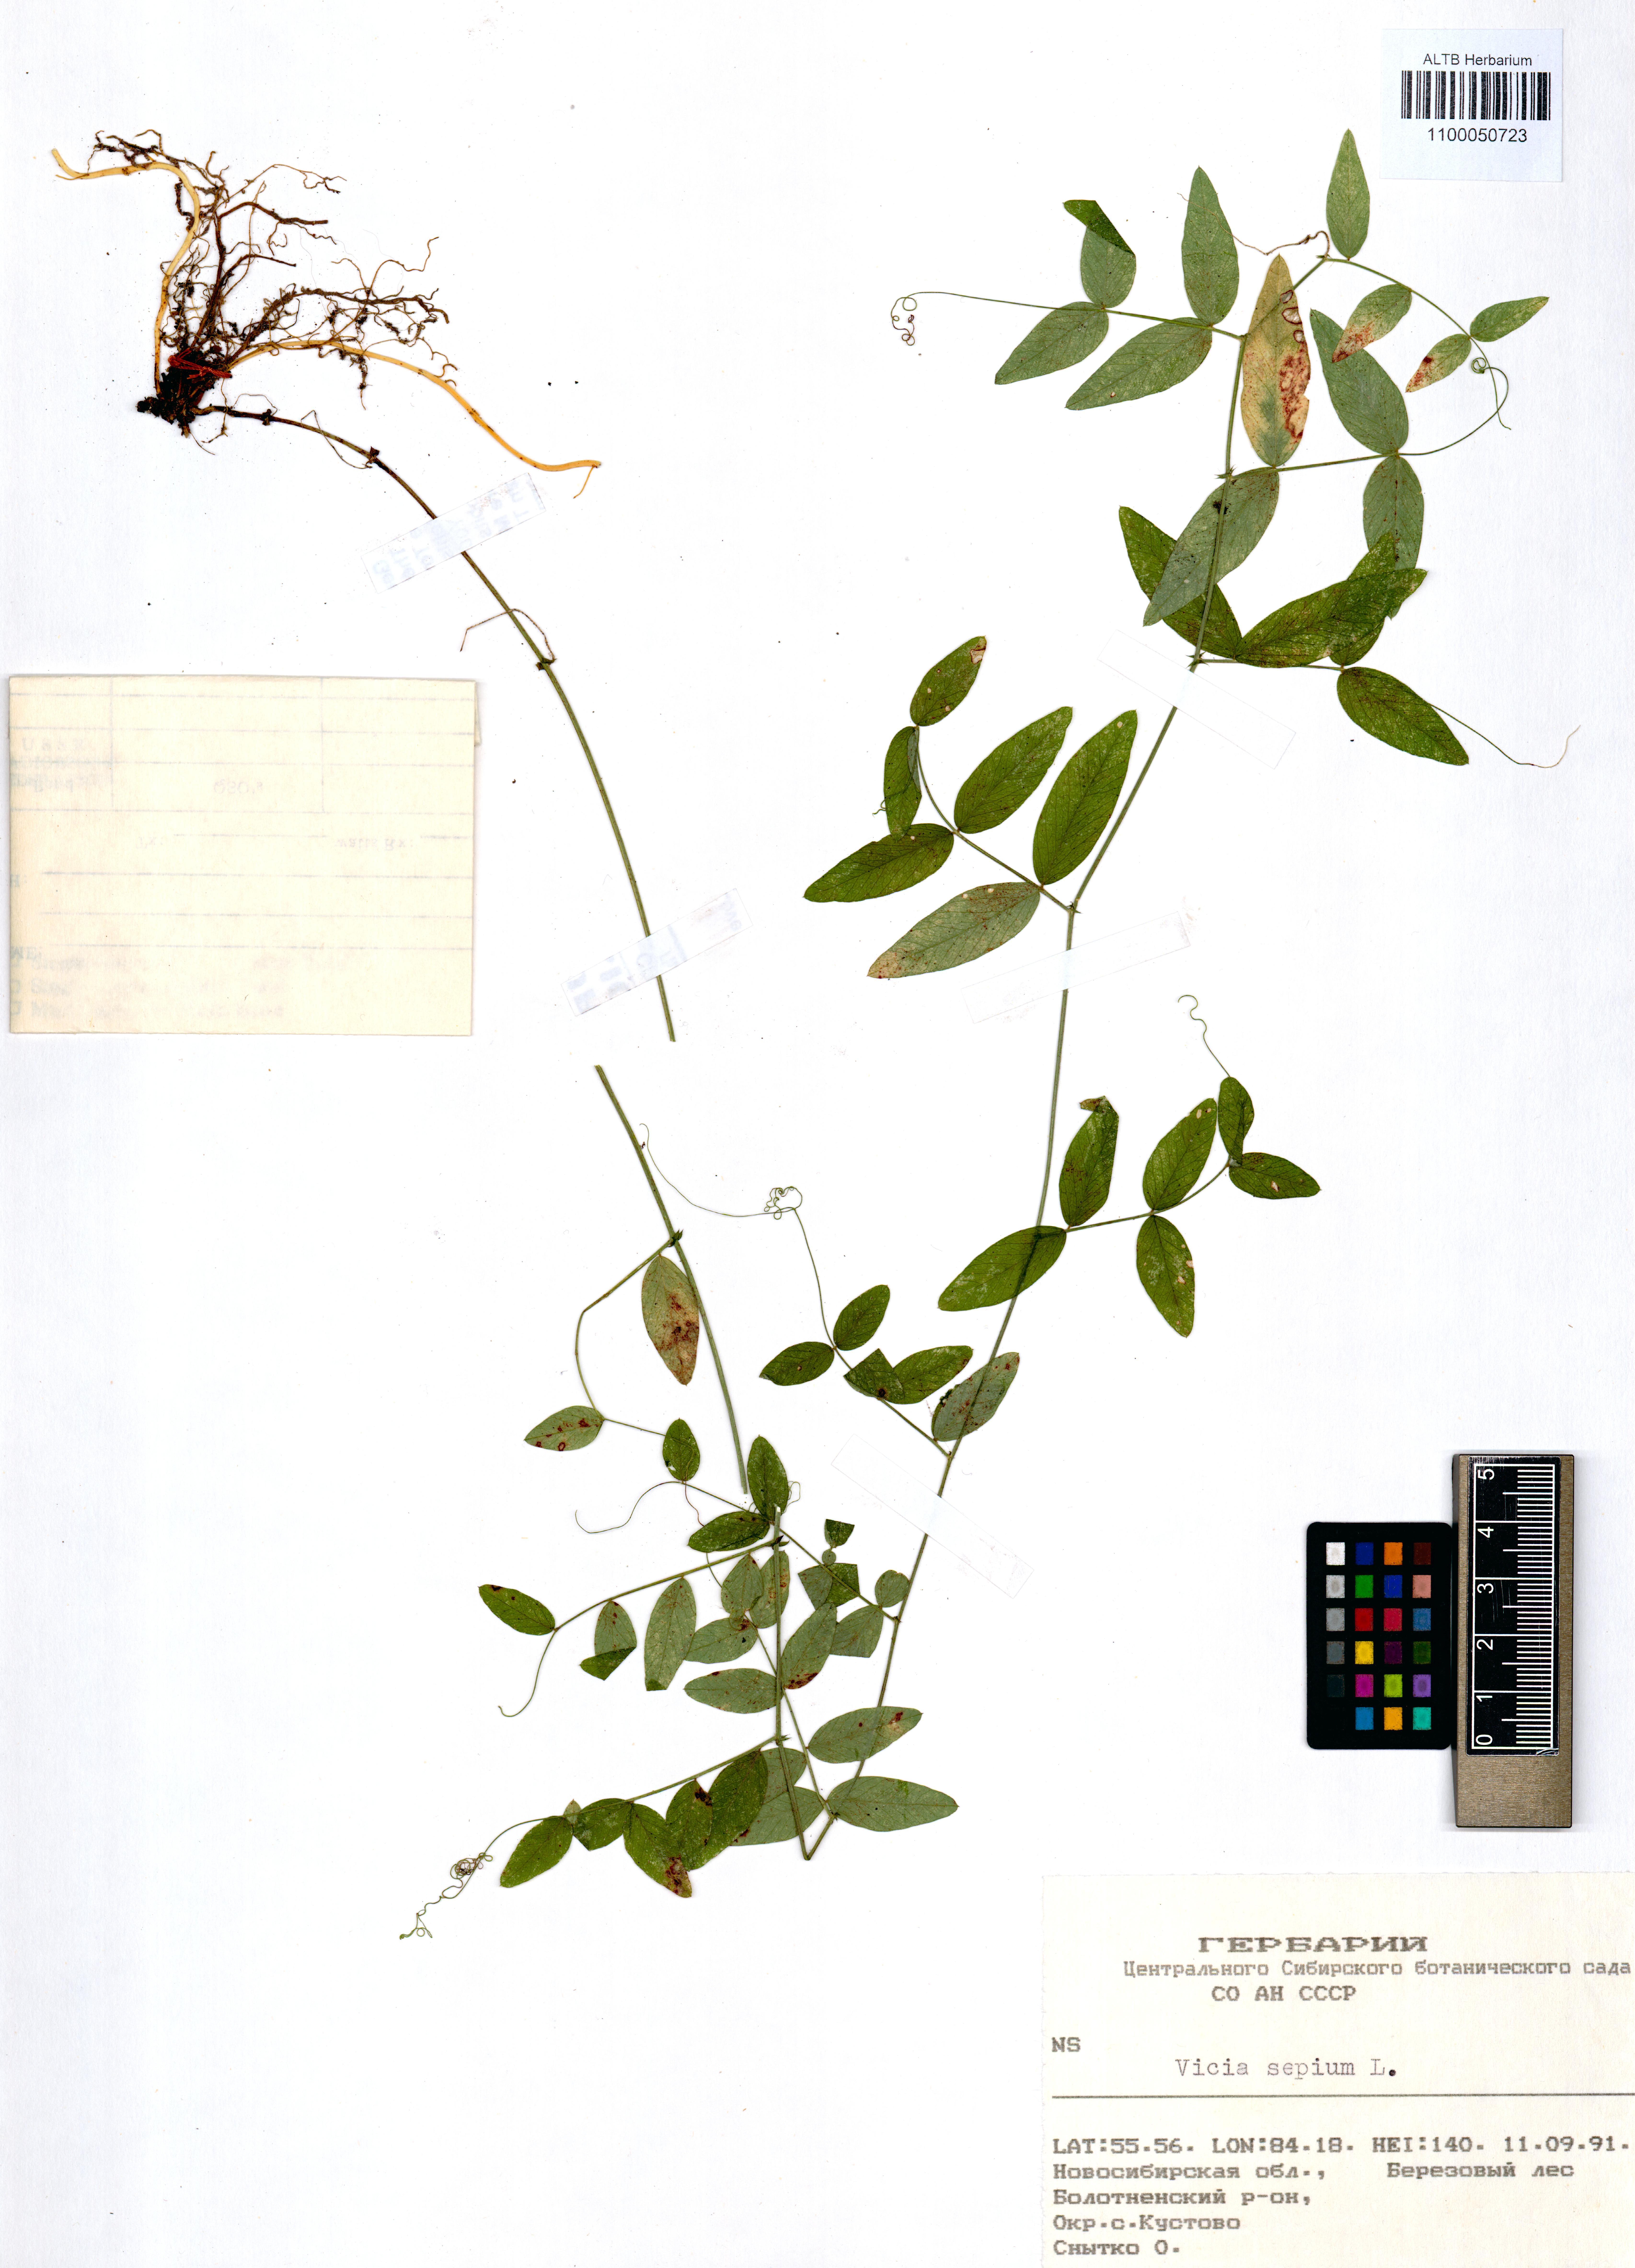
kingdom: Plantae
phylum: Tracheophyta
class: Magnoliopsida
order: Fabales
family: Fabaceae
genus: Vicia
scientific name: Vicia sepium
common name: Bush vetch
